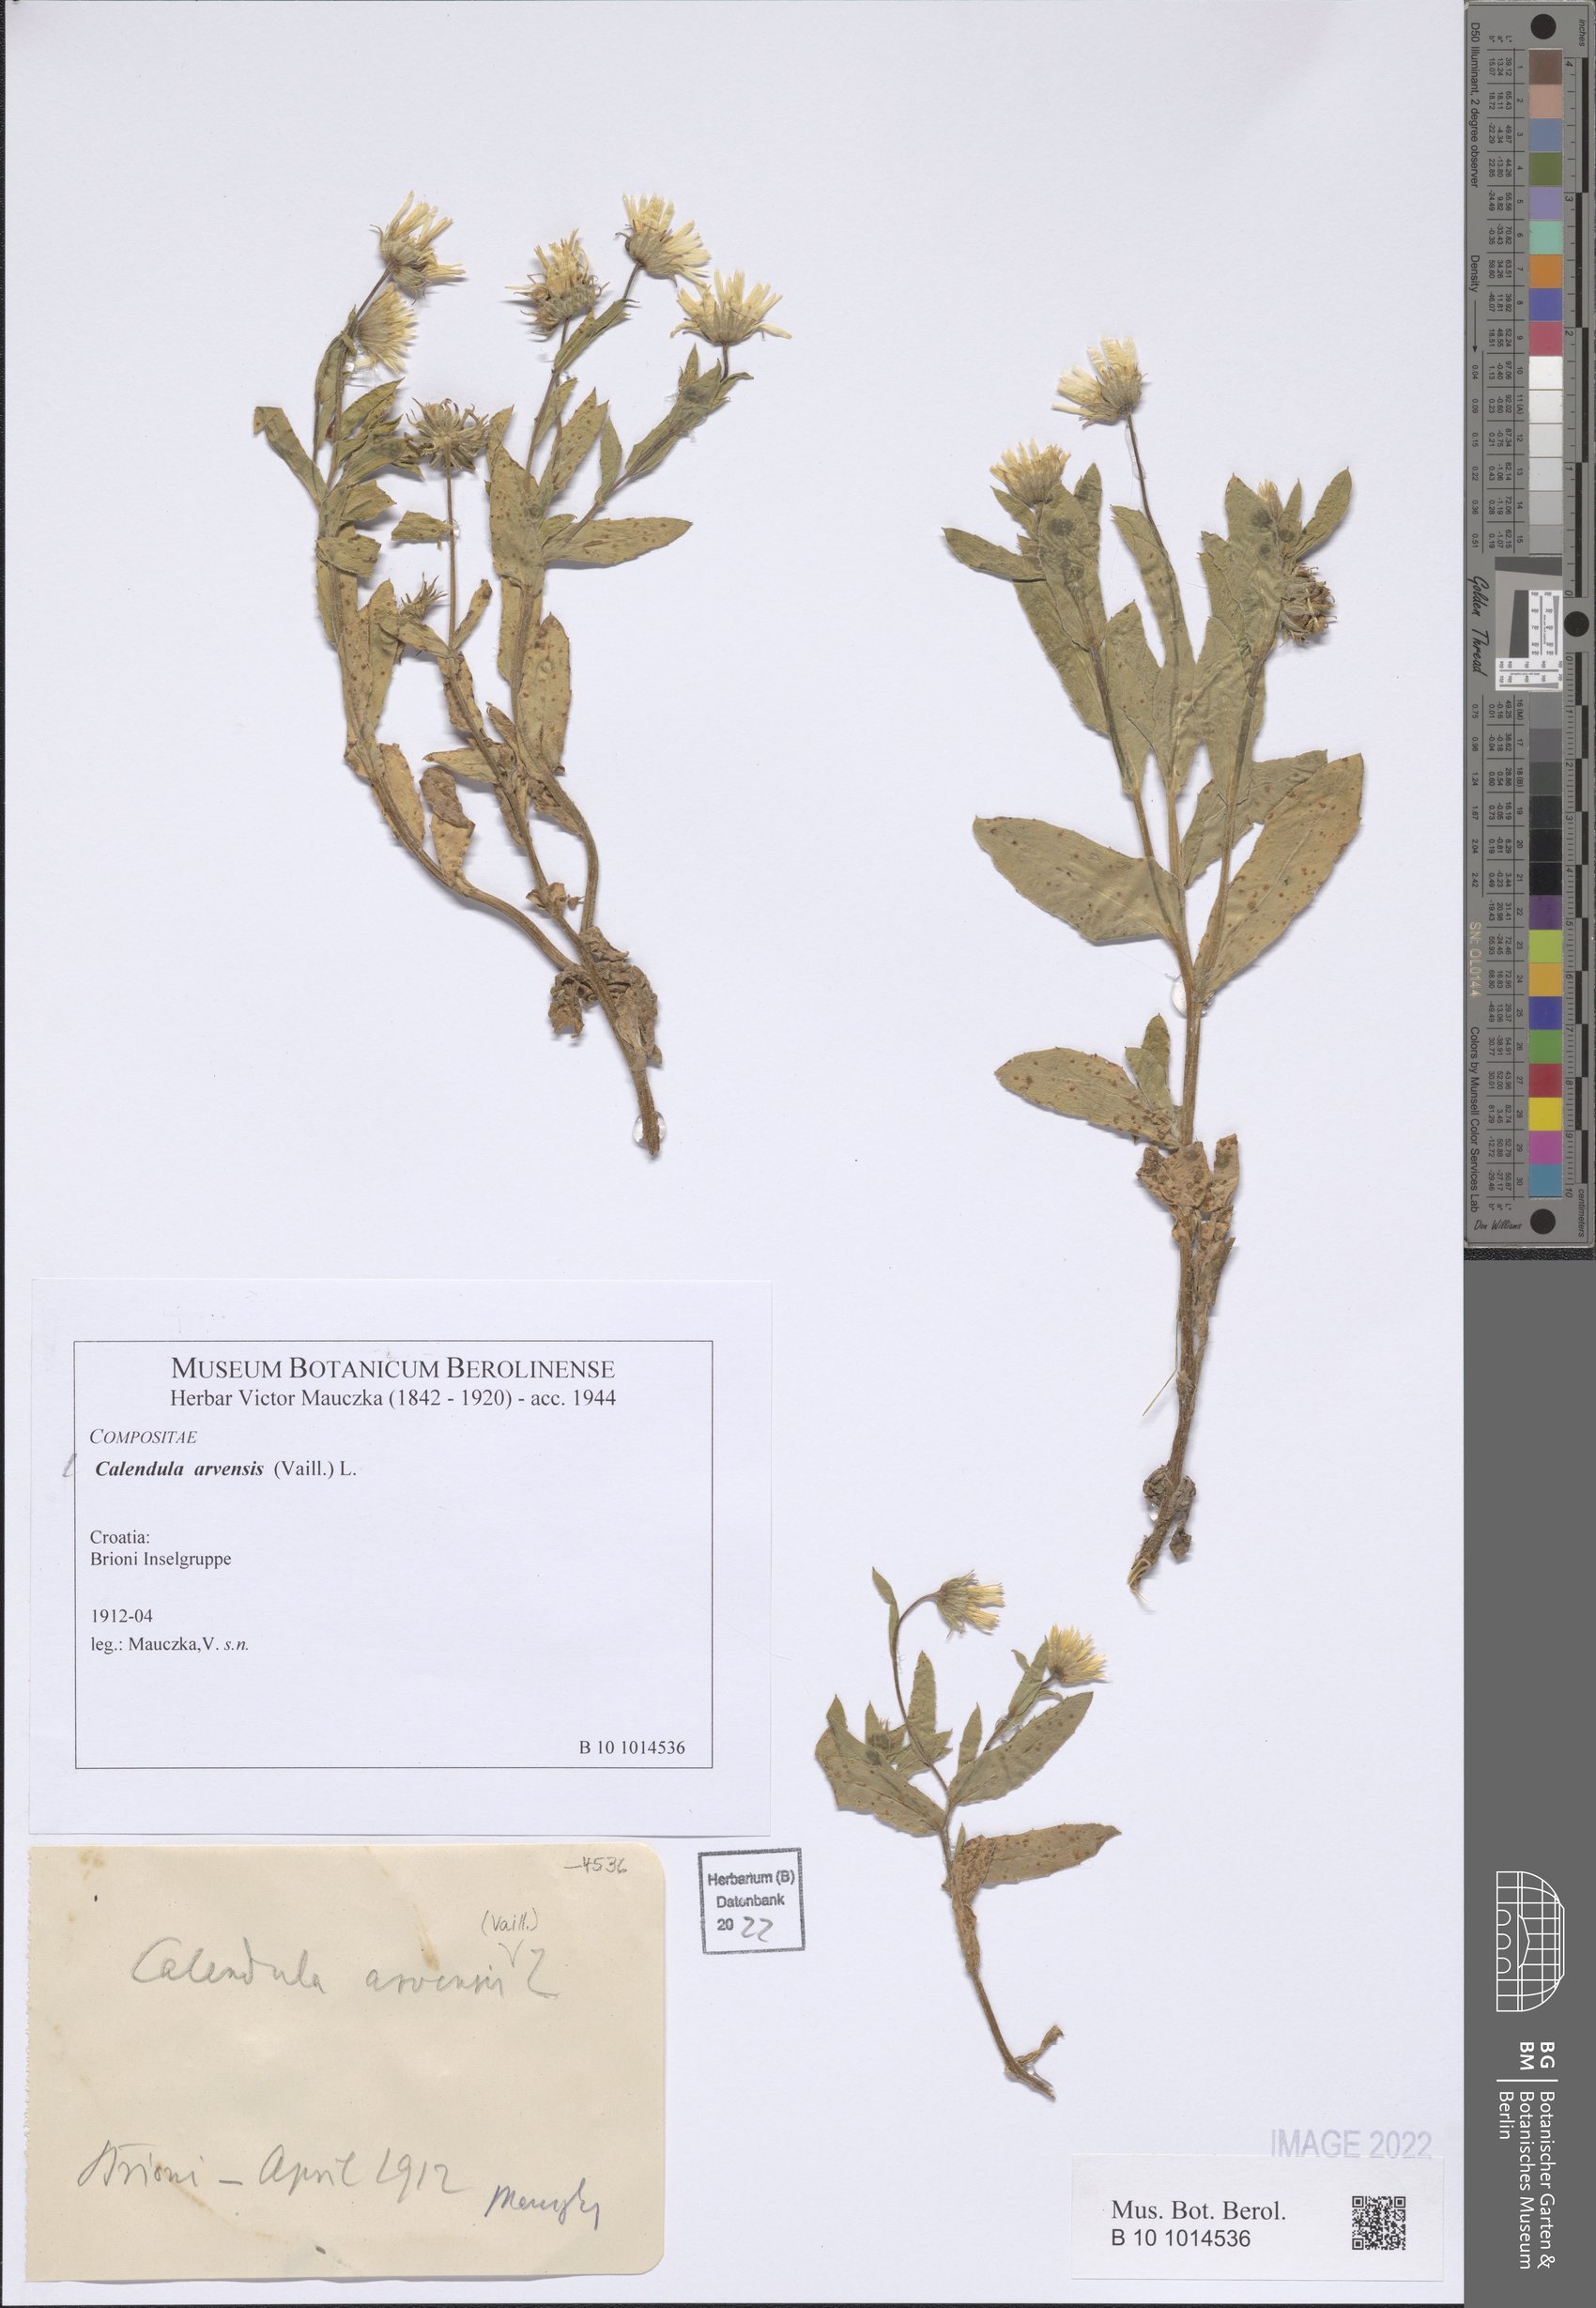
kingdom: Plantae
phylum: Tracheophyta
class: Magnoliopsida
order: Asterales
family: Asteraceae
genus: Calendula
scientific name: Calendula arvensis
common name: Field marigold
